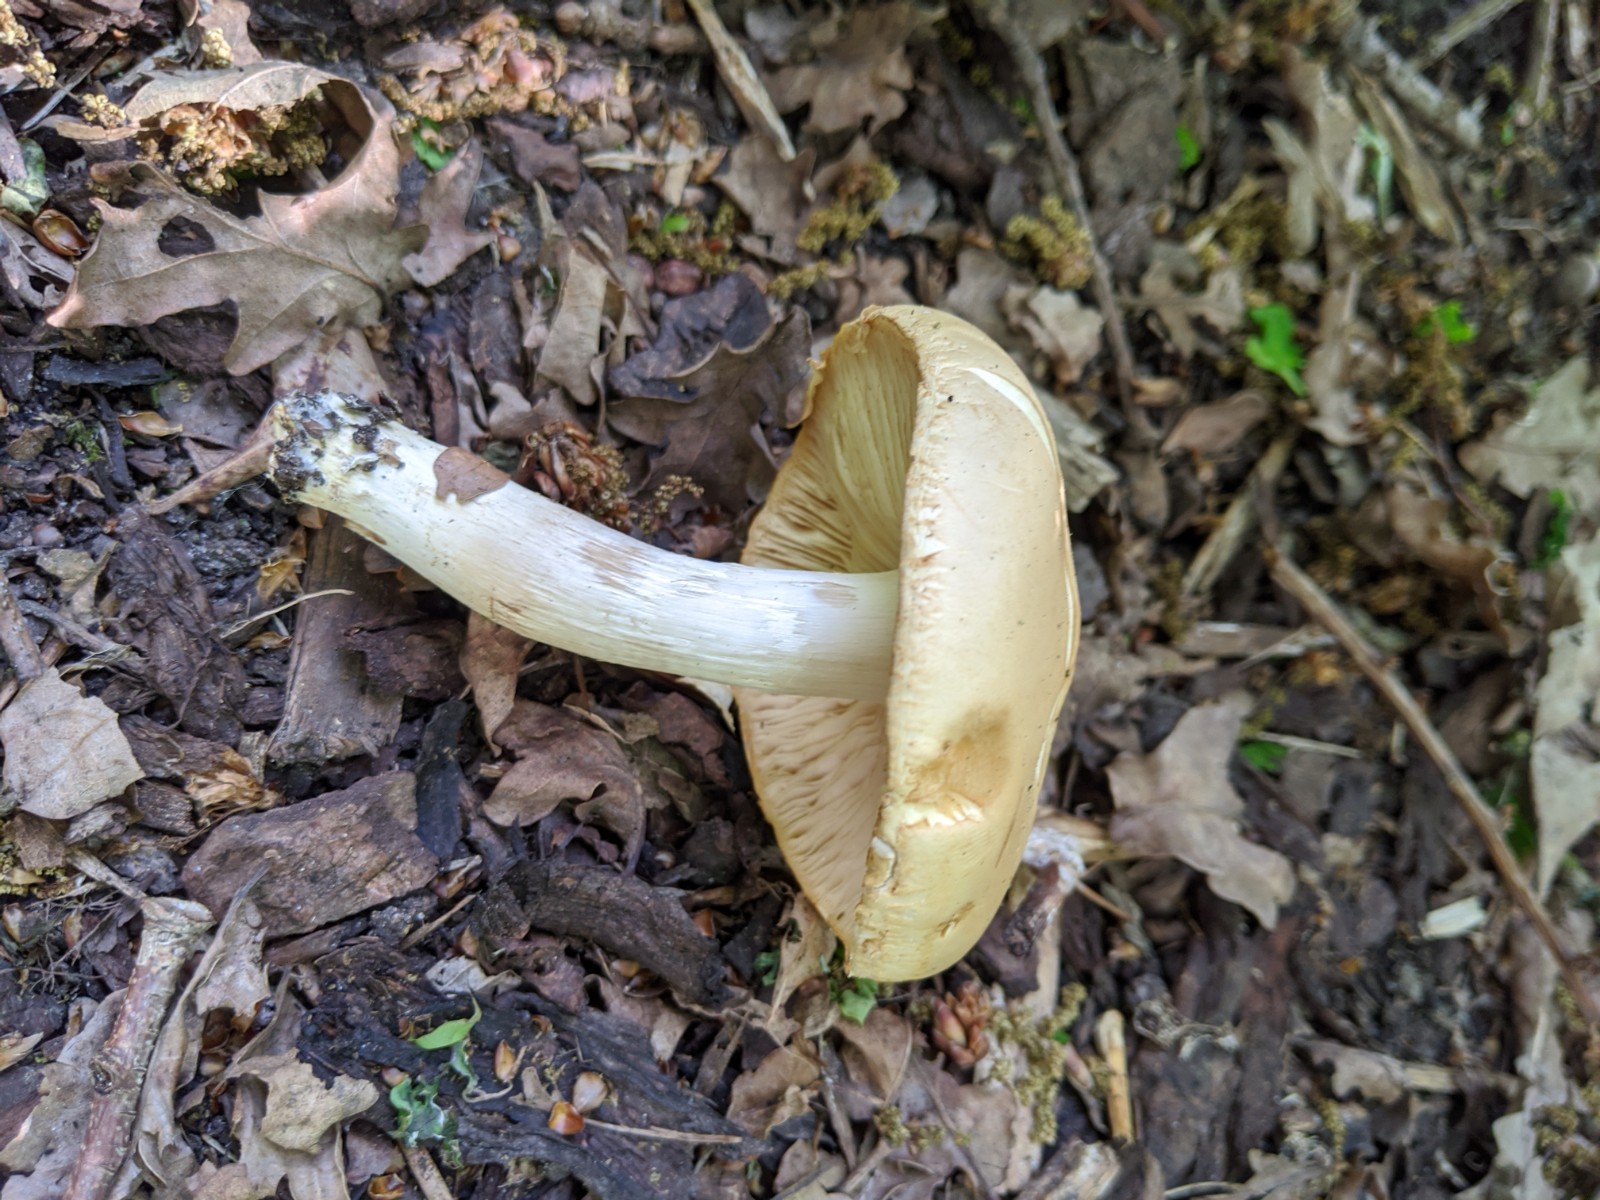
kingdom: Fungi
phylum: Basidiomycota
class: Agaricomycetes
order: Agaricales
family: Strophariaceae
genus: Agrocybe
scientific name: Agrocybe praecox
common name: tidlig agerhat
